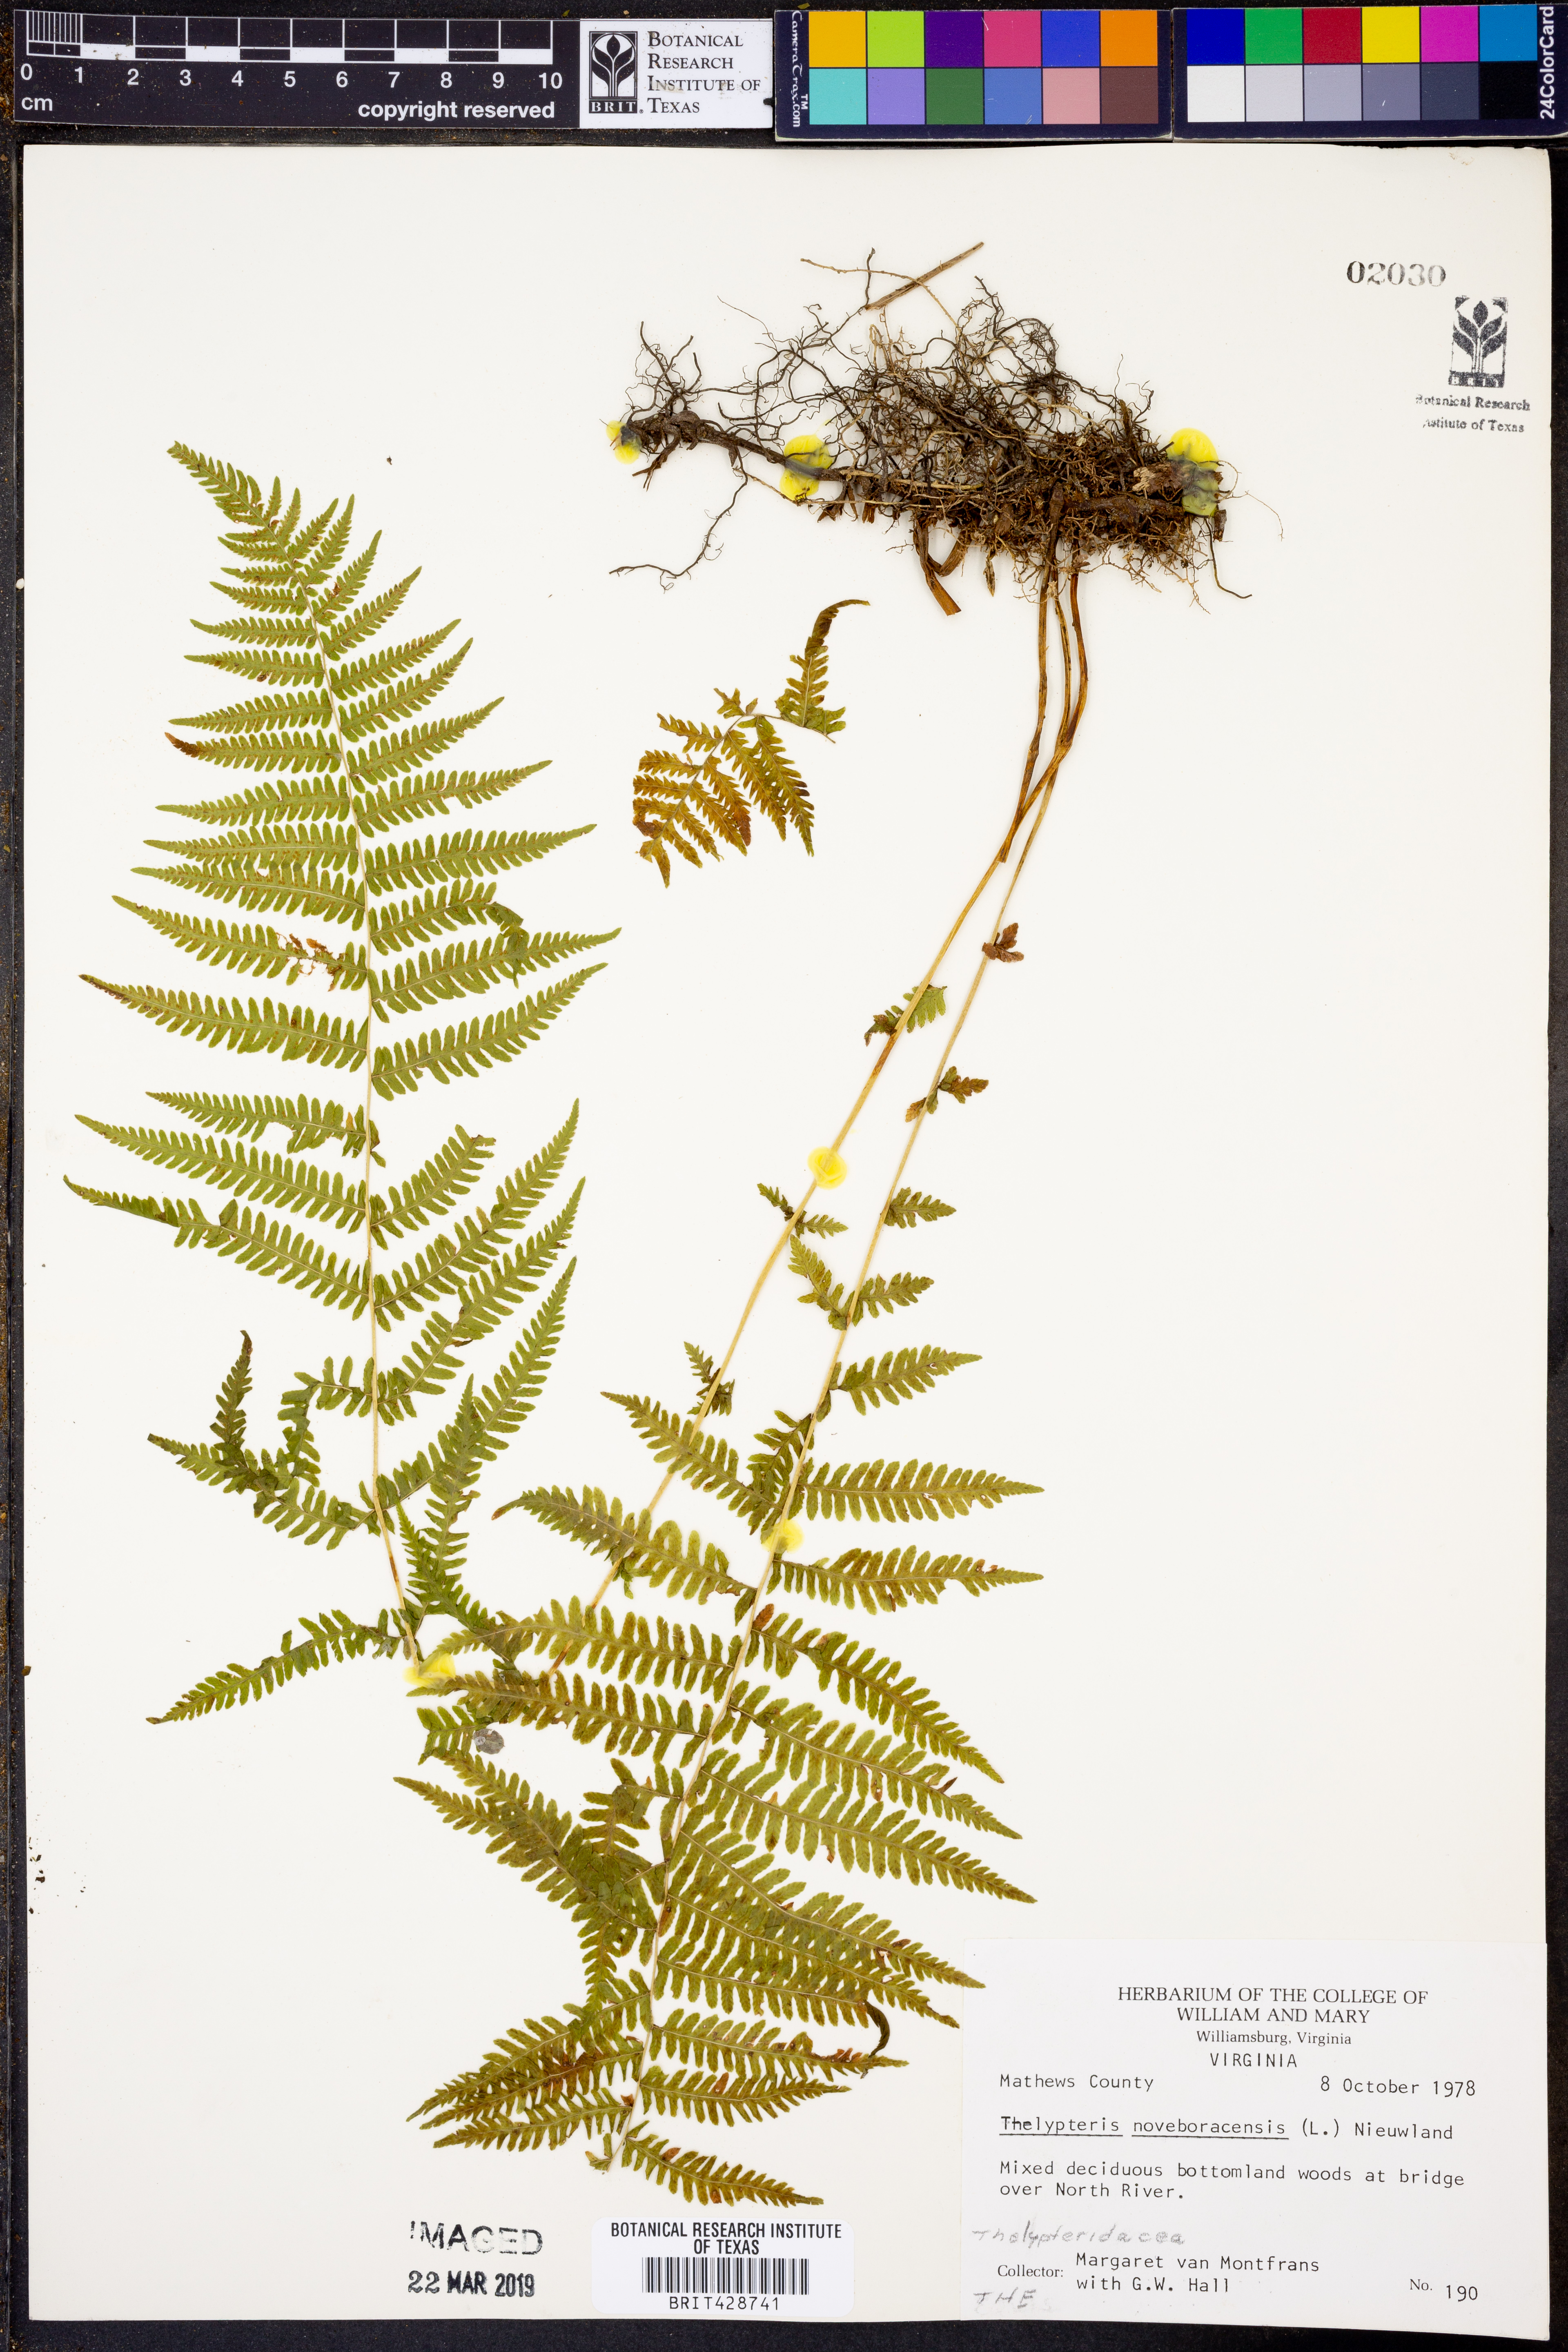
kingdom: Plantae
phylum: Tracheophyta
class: Polypodiopsida
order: Polypodiales
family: Thelypteridaceae
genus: Amauropelta
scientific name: Amauropelta noveboracensis
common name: New york fern
